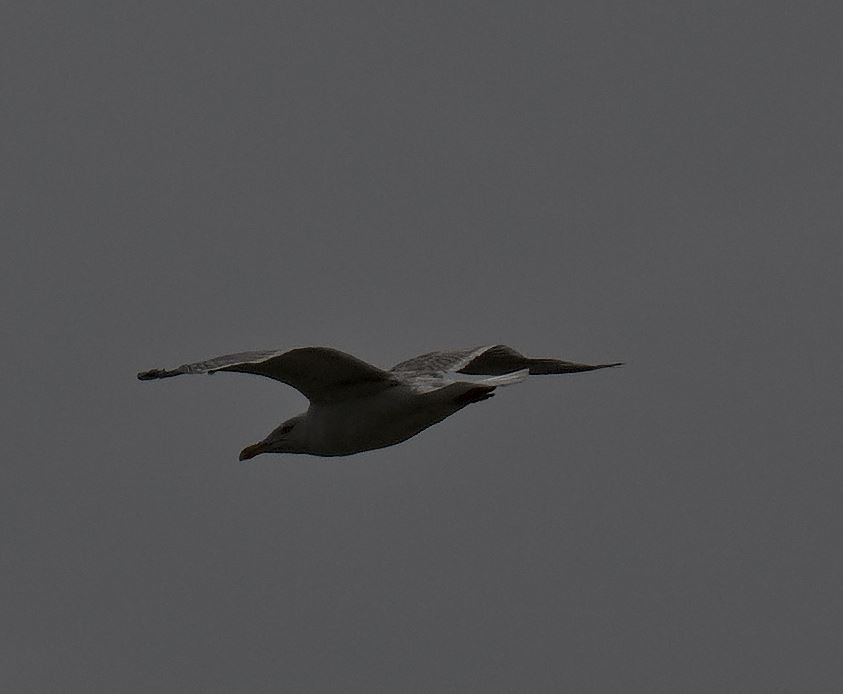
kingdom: Animalia
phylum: Chordata
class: Aves
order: Charadriiformes
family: Laridae
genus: Larus
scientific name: Larus argentatus
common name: Sølvmåge
